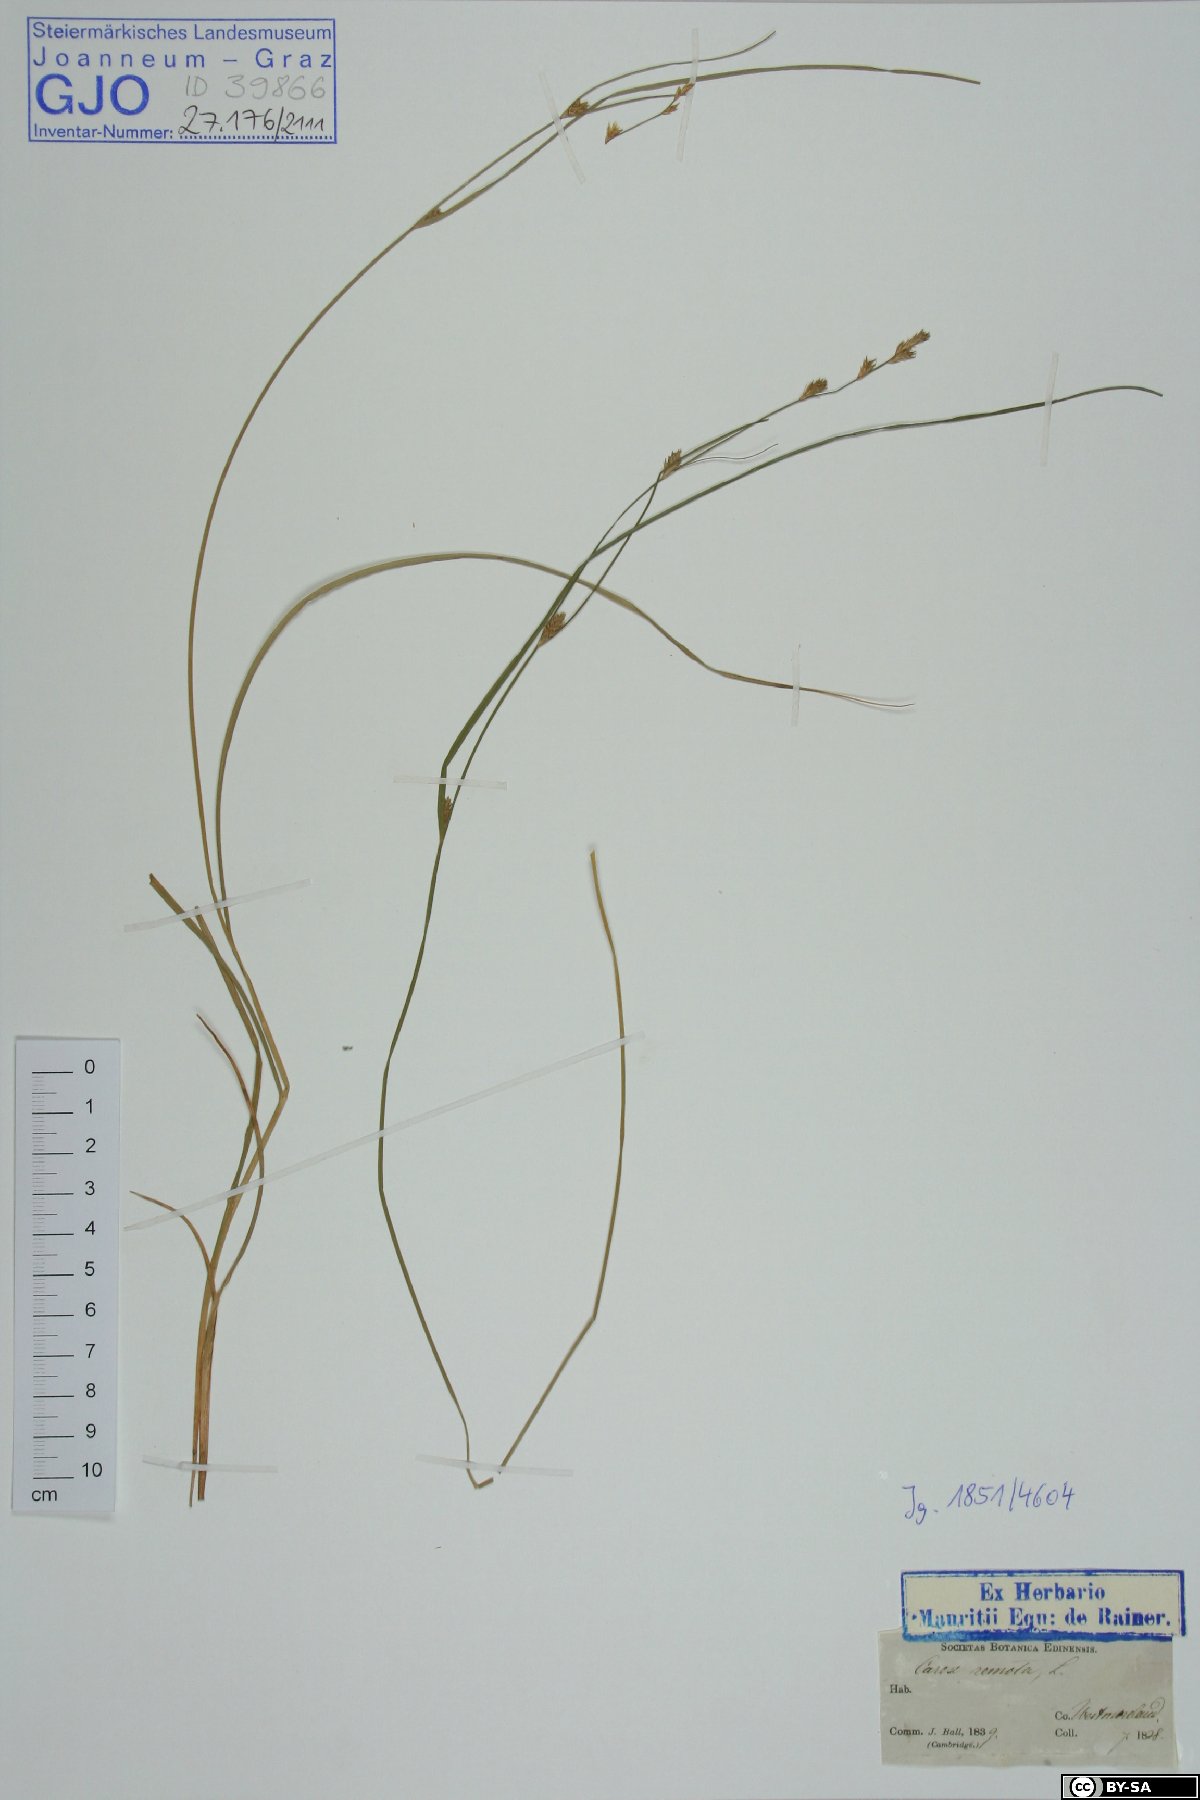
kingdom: Plantae
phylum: Tracheophyta
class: Liliopsida
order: Poales
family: Cyperaceae
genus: Carex
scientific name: Carex remota
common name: Remote sedge
